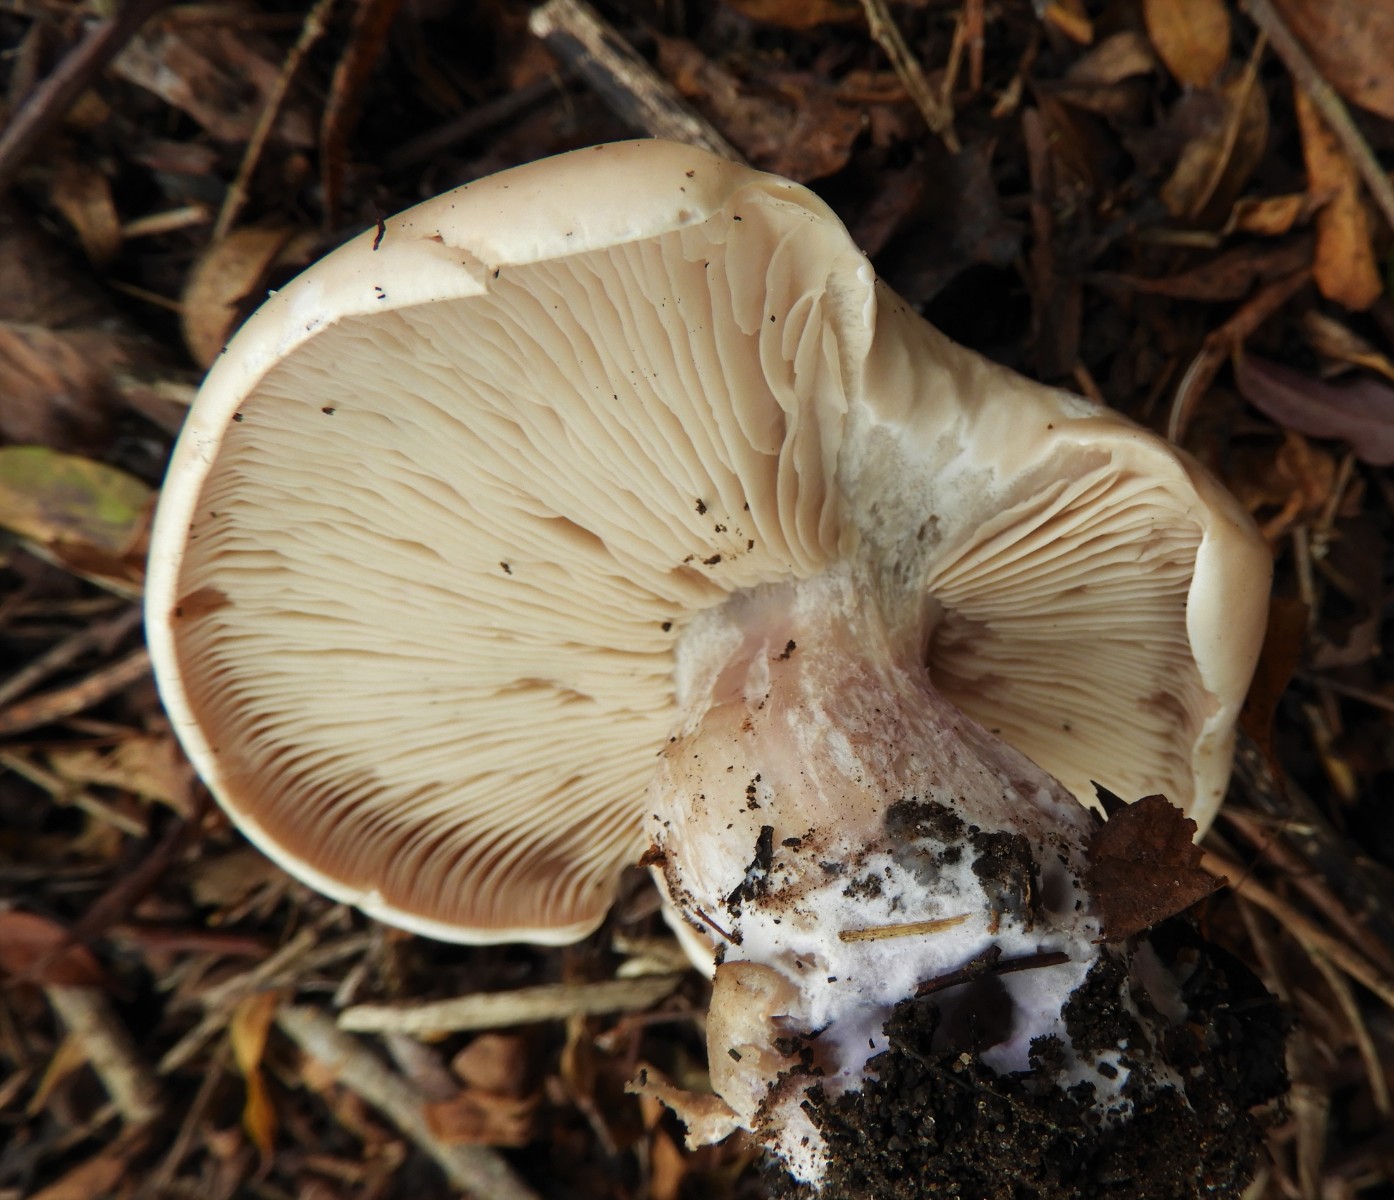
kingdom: Fungi
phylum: Basidiomycota
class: Agaricomycetes
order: Agaricales
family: Tricholomataceae
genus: Lepista
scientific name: Lepista personata
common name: bleg hekseringshat
